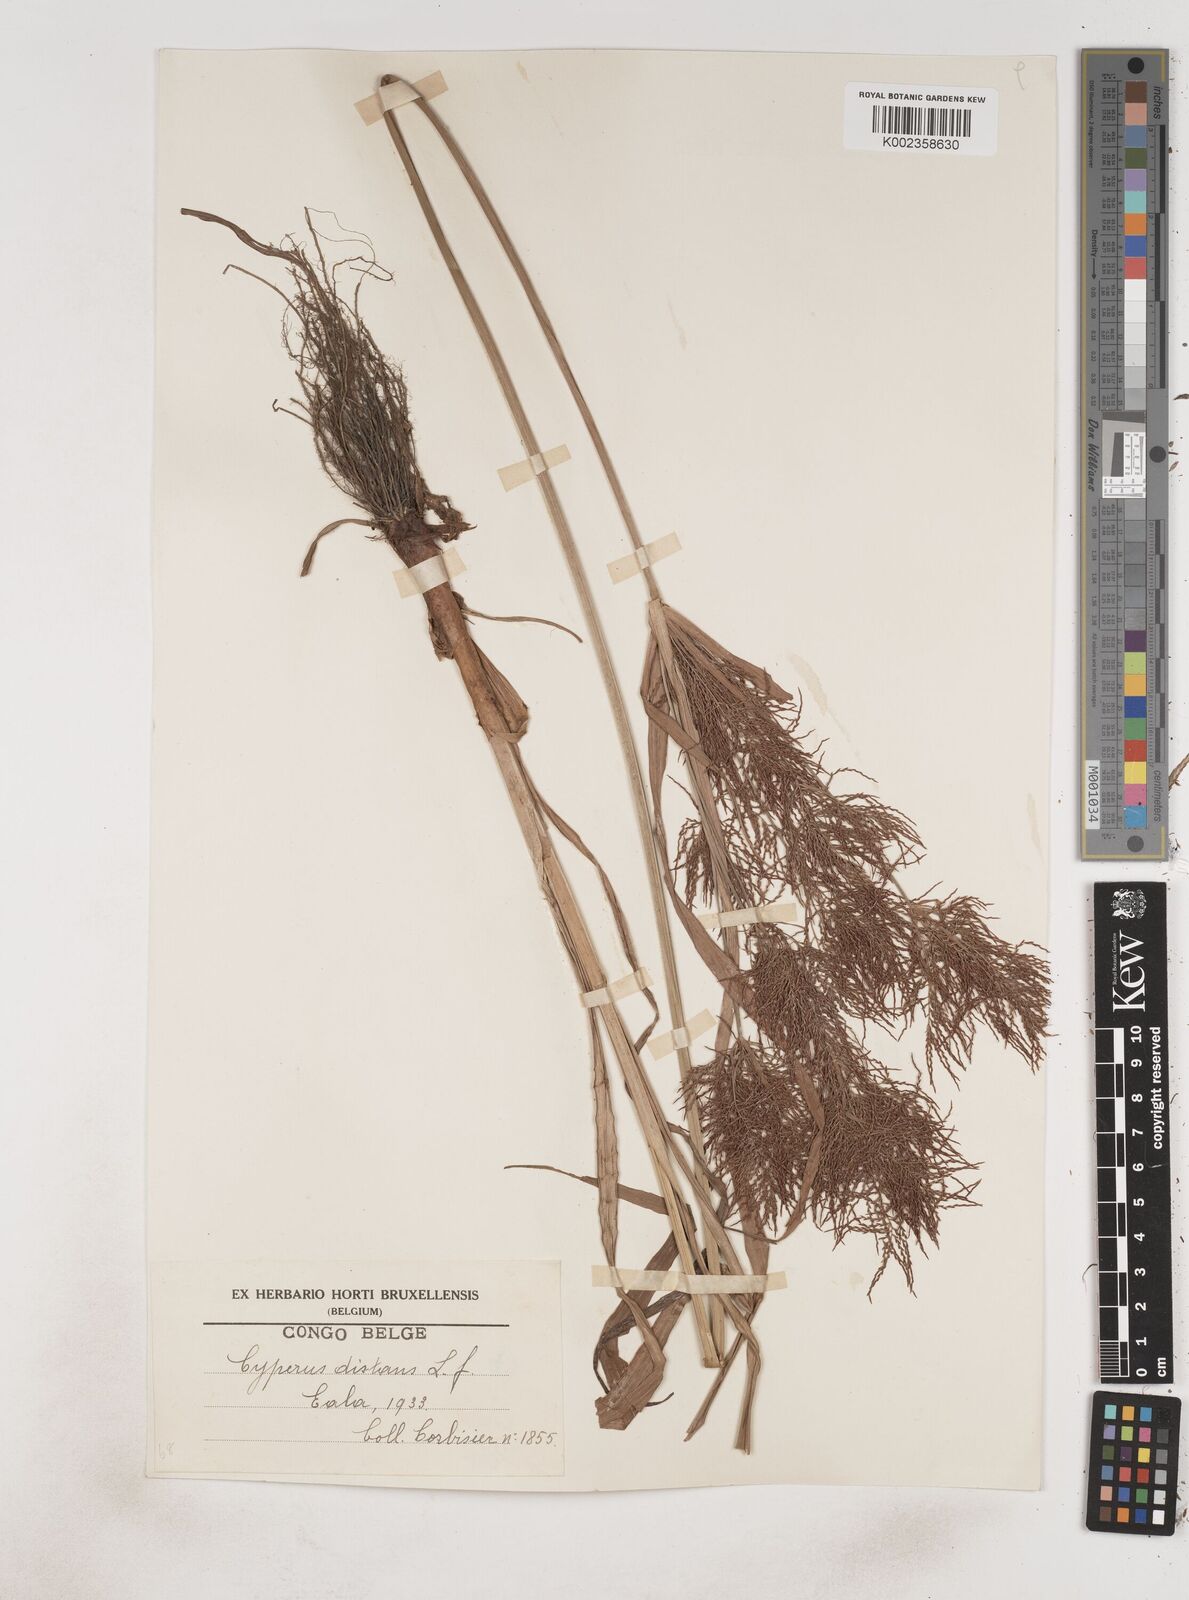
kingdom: Plantae
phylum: Tracheophyta
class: Liliopsida
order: Poales
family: Cyperaceae
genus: Cyperus
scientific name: Cyperus distans
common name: Slender cyperus
